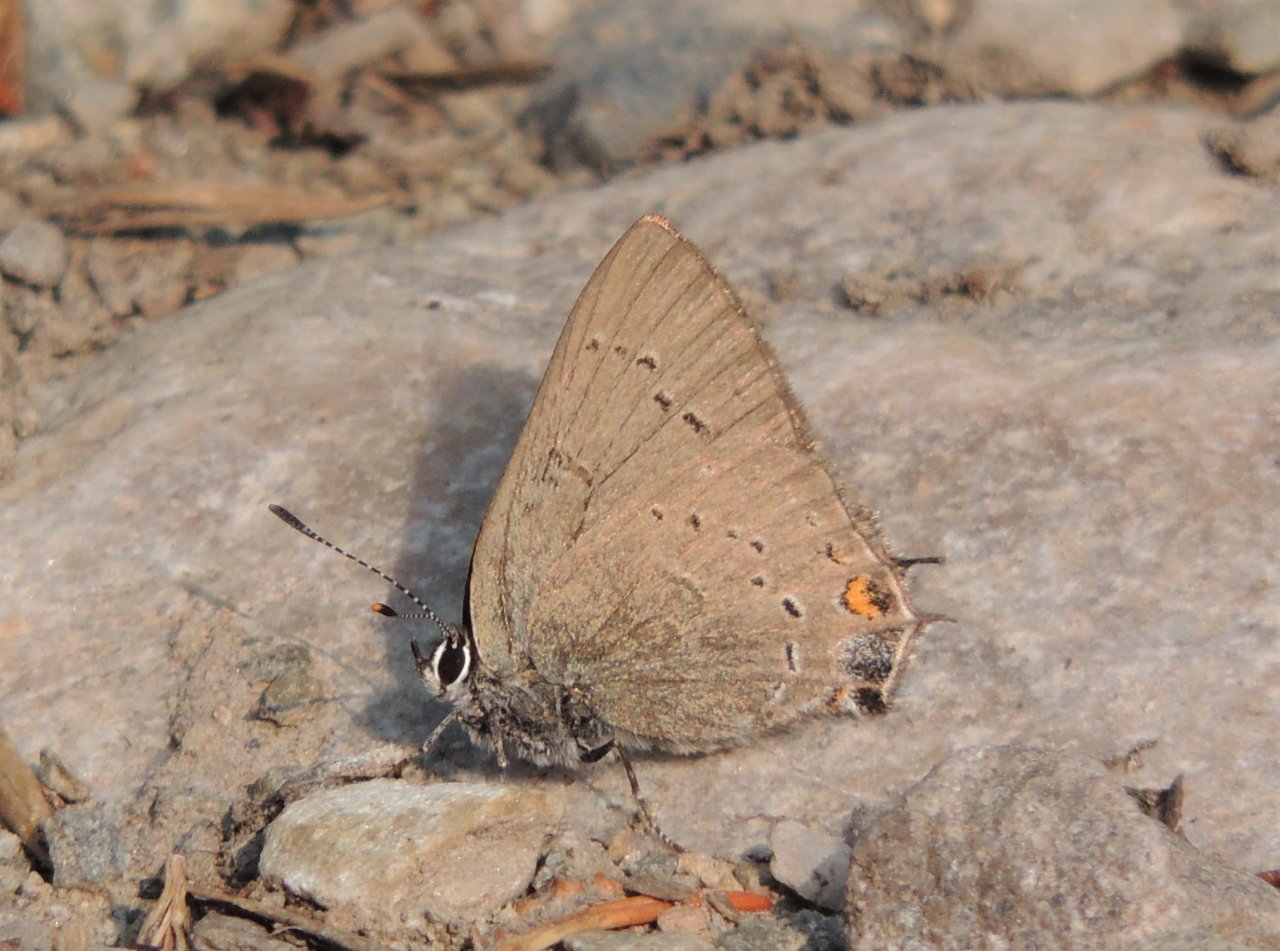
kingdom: Animalia
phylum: Arthropoda
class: Insecta
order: Lepidoptera
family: Lycaenidae
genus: Strymon
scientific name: Strymon sylvinus
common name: Sylvan Hairstreak
